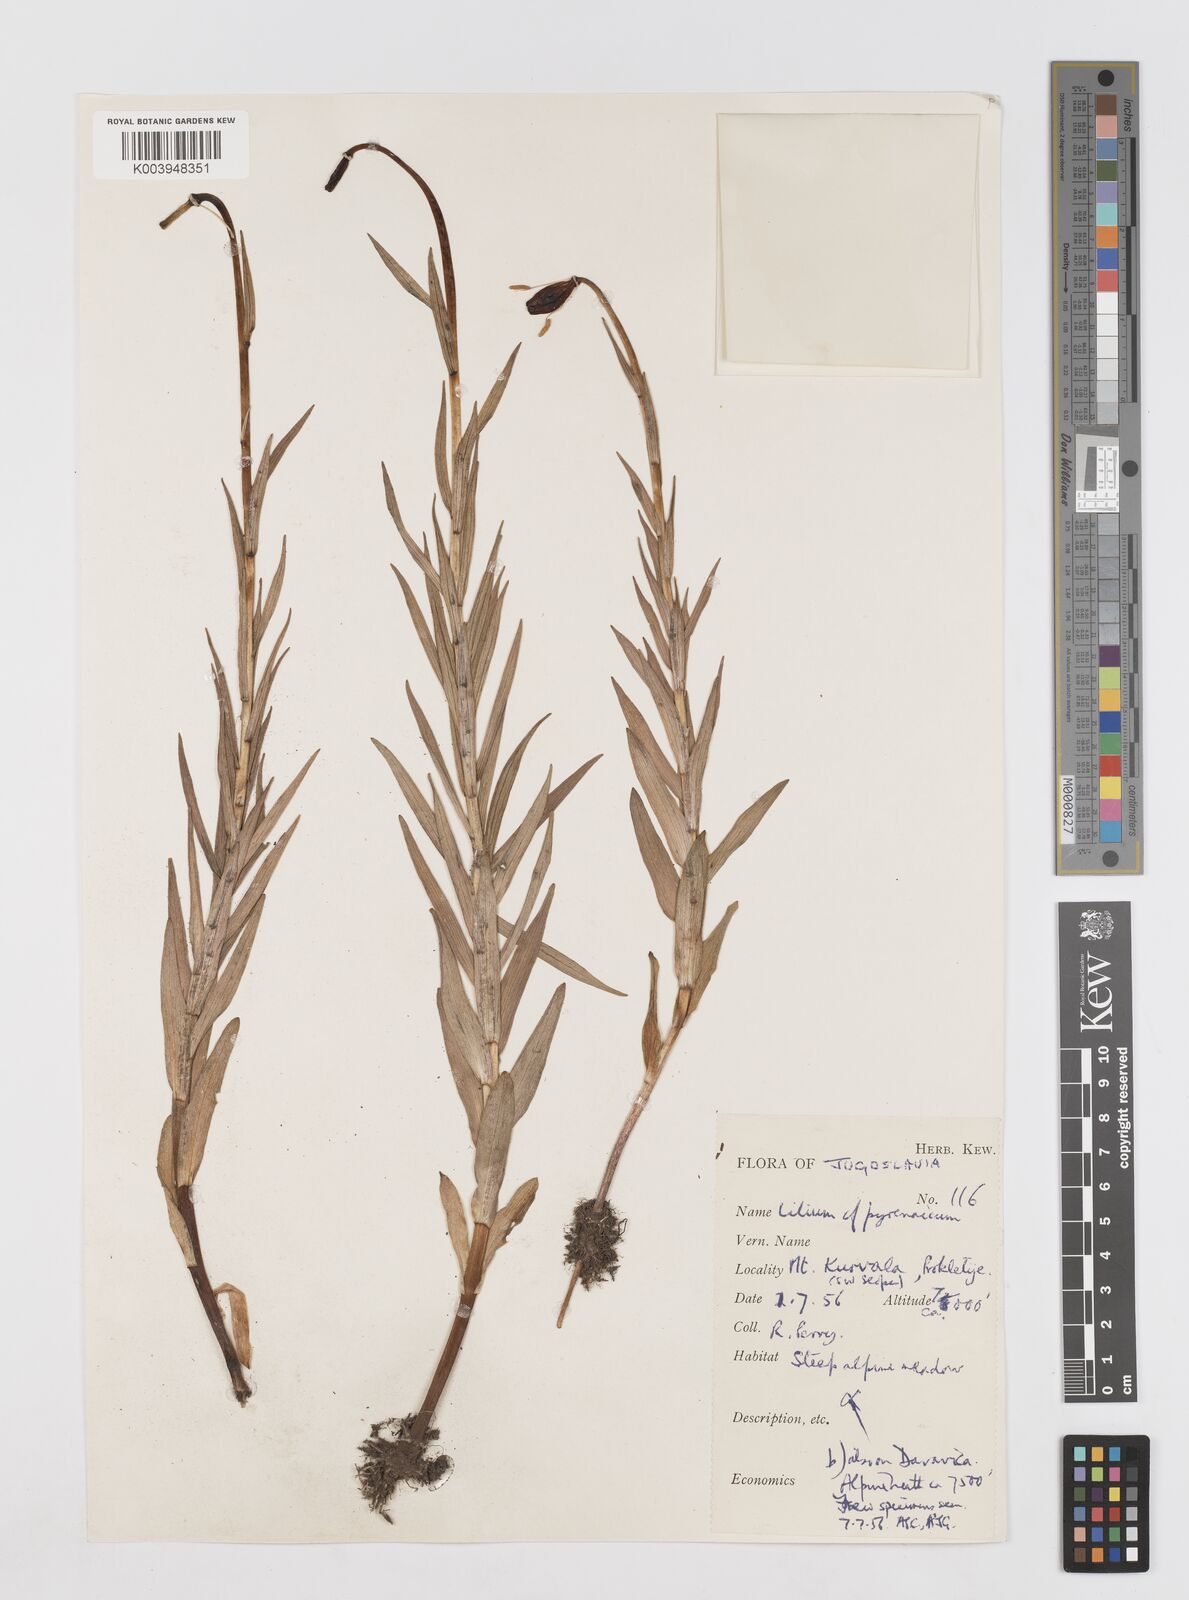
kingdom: Plantae
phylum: Tracheophyta
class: Liliopsida
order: Liliales
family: Liliaceae
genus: Lilium
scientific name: Lilium carniolicum
